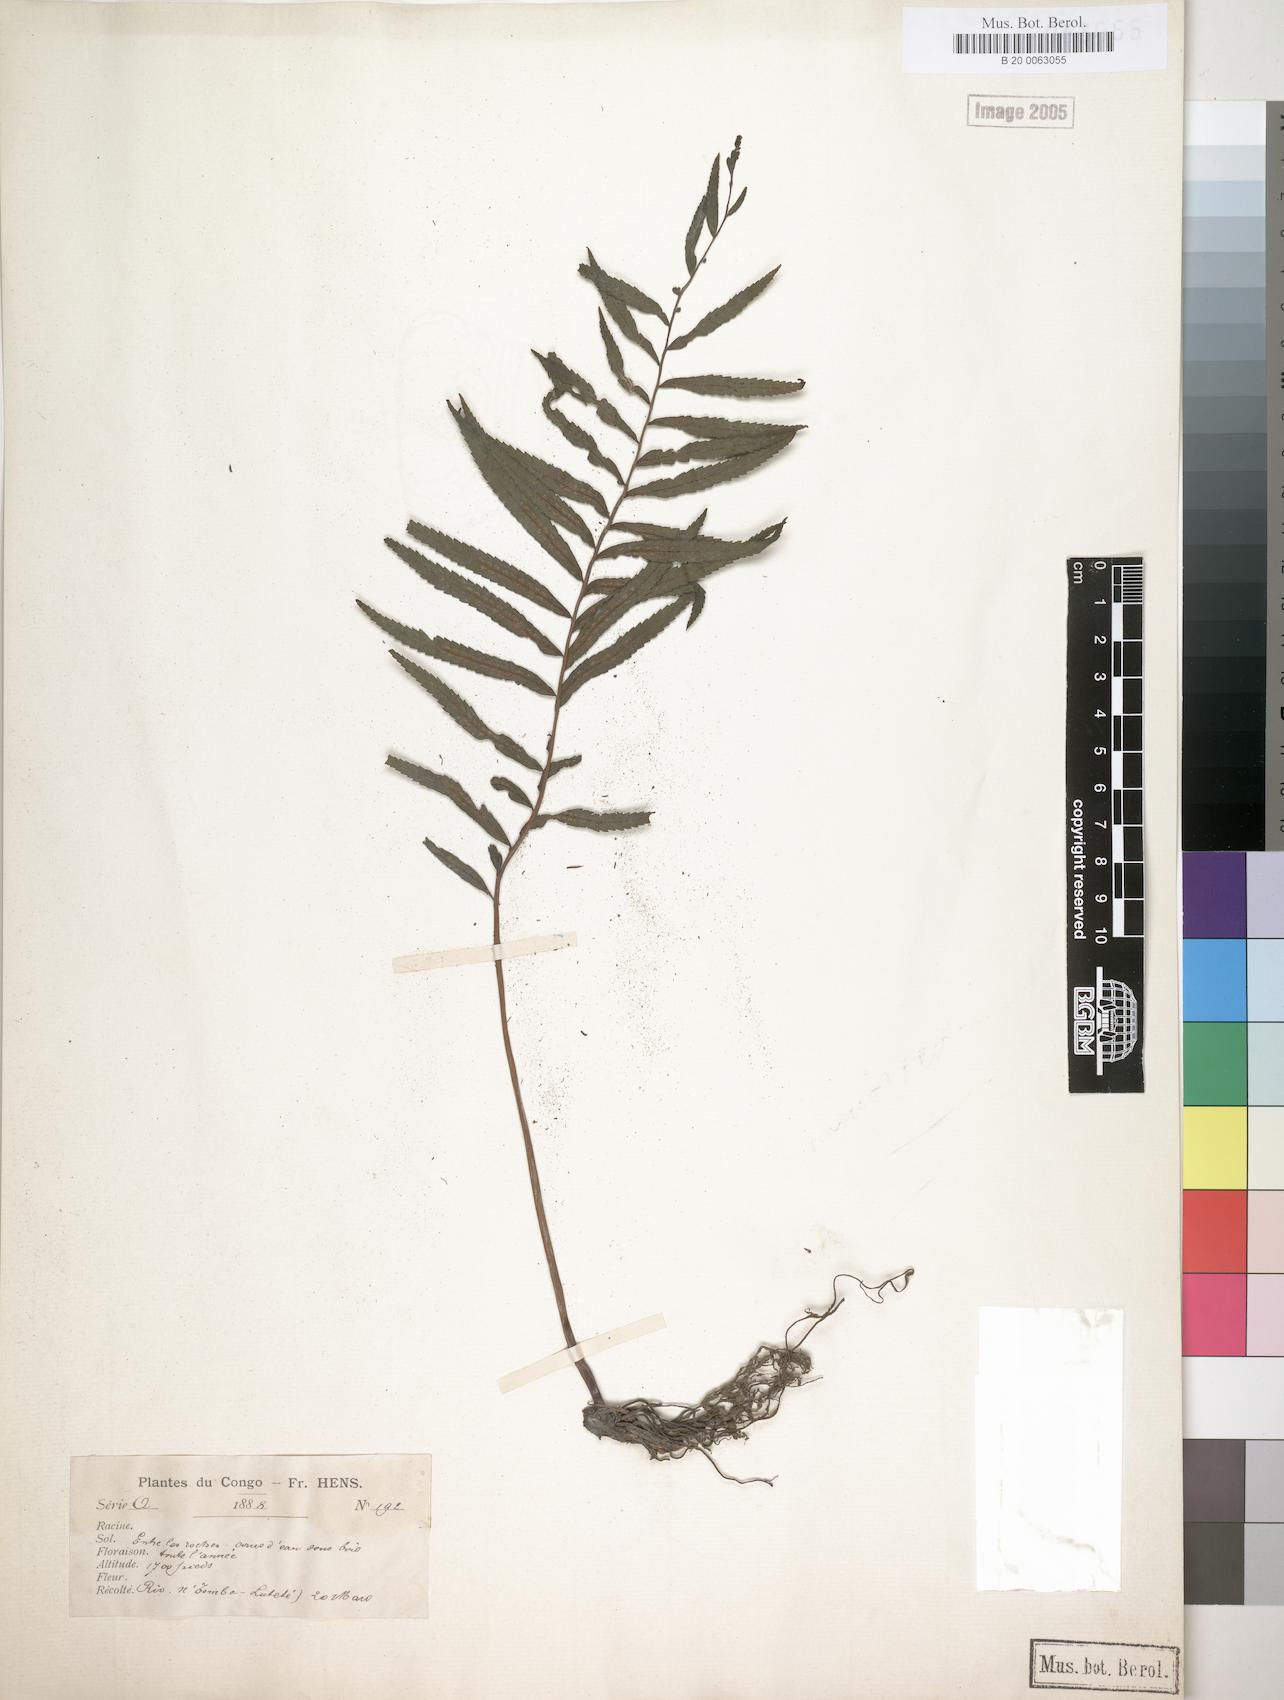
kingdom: Plantae
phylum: Tracheophyta
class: Polypodiopsida
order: Polypodiales
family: Thelypteridaceae
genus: Menisorus
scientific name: Menisorus pauciflorus
